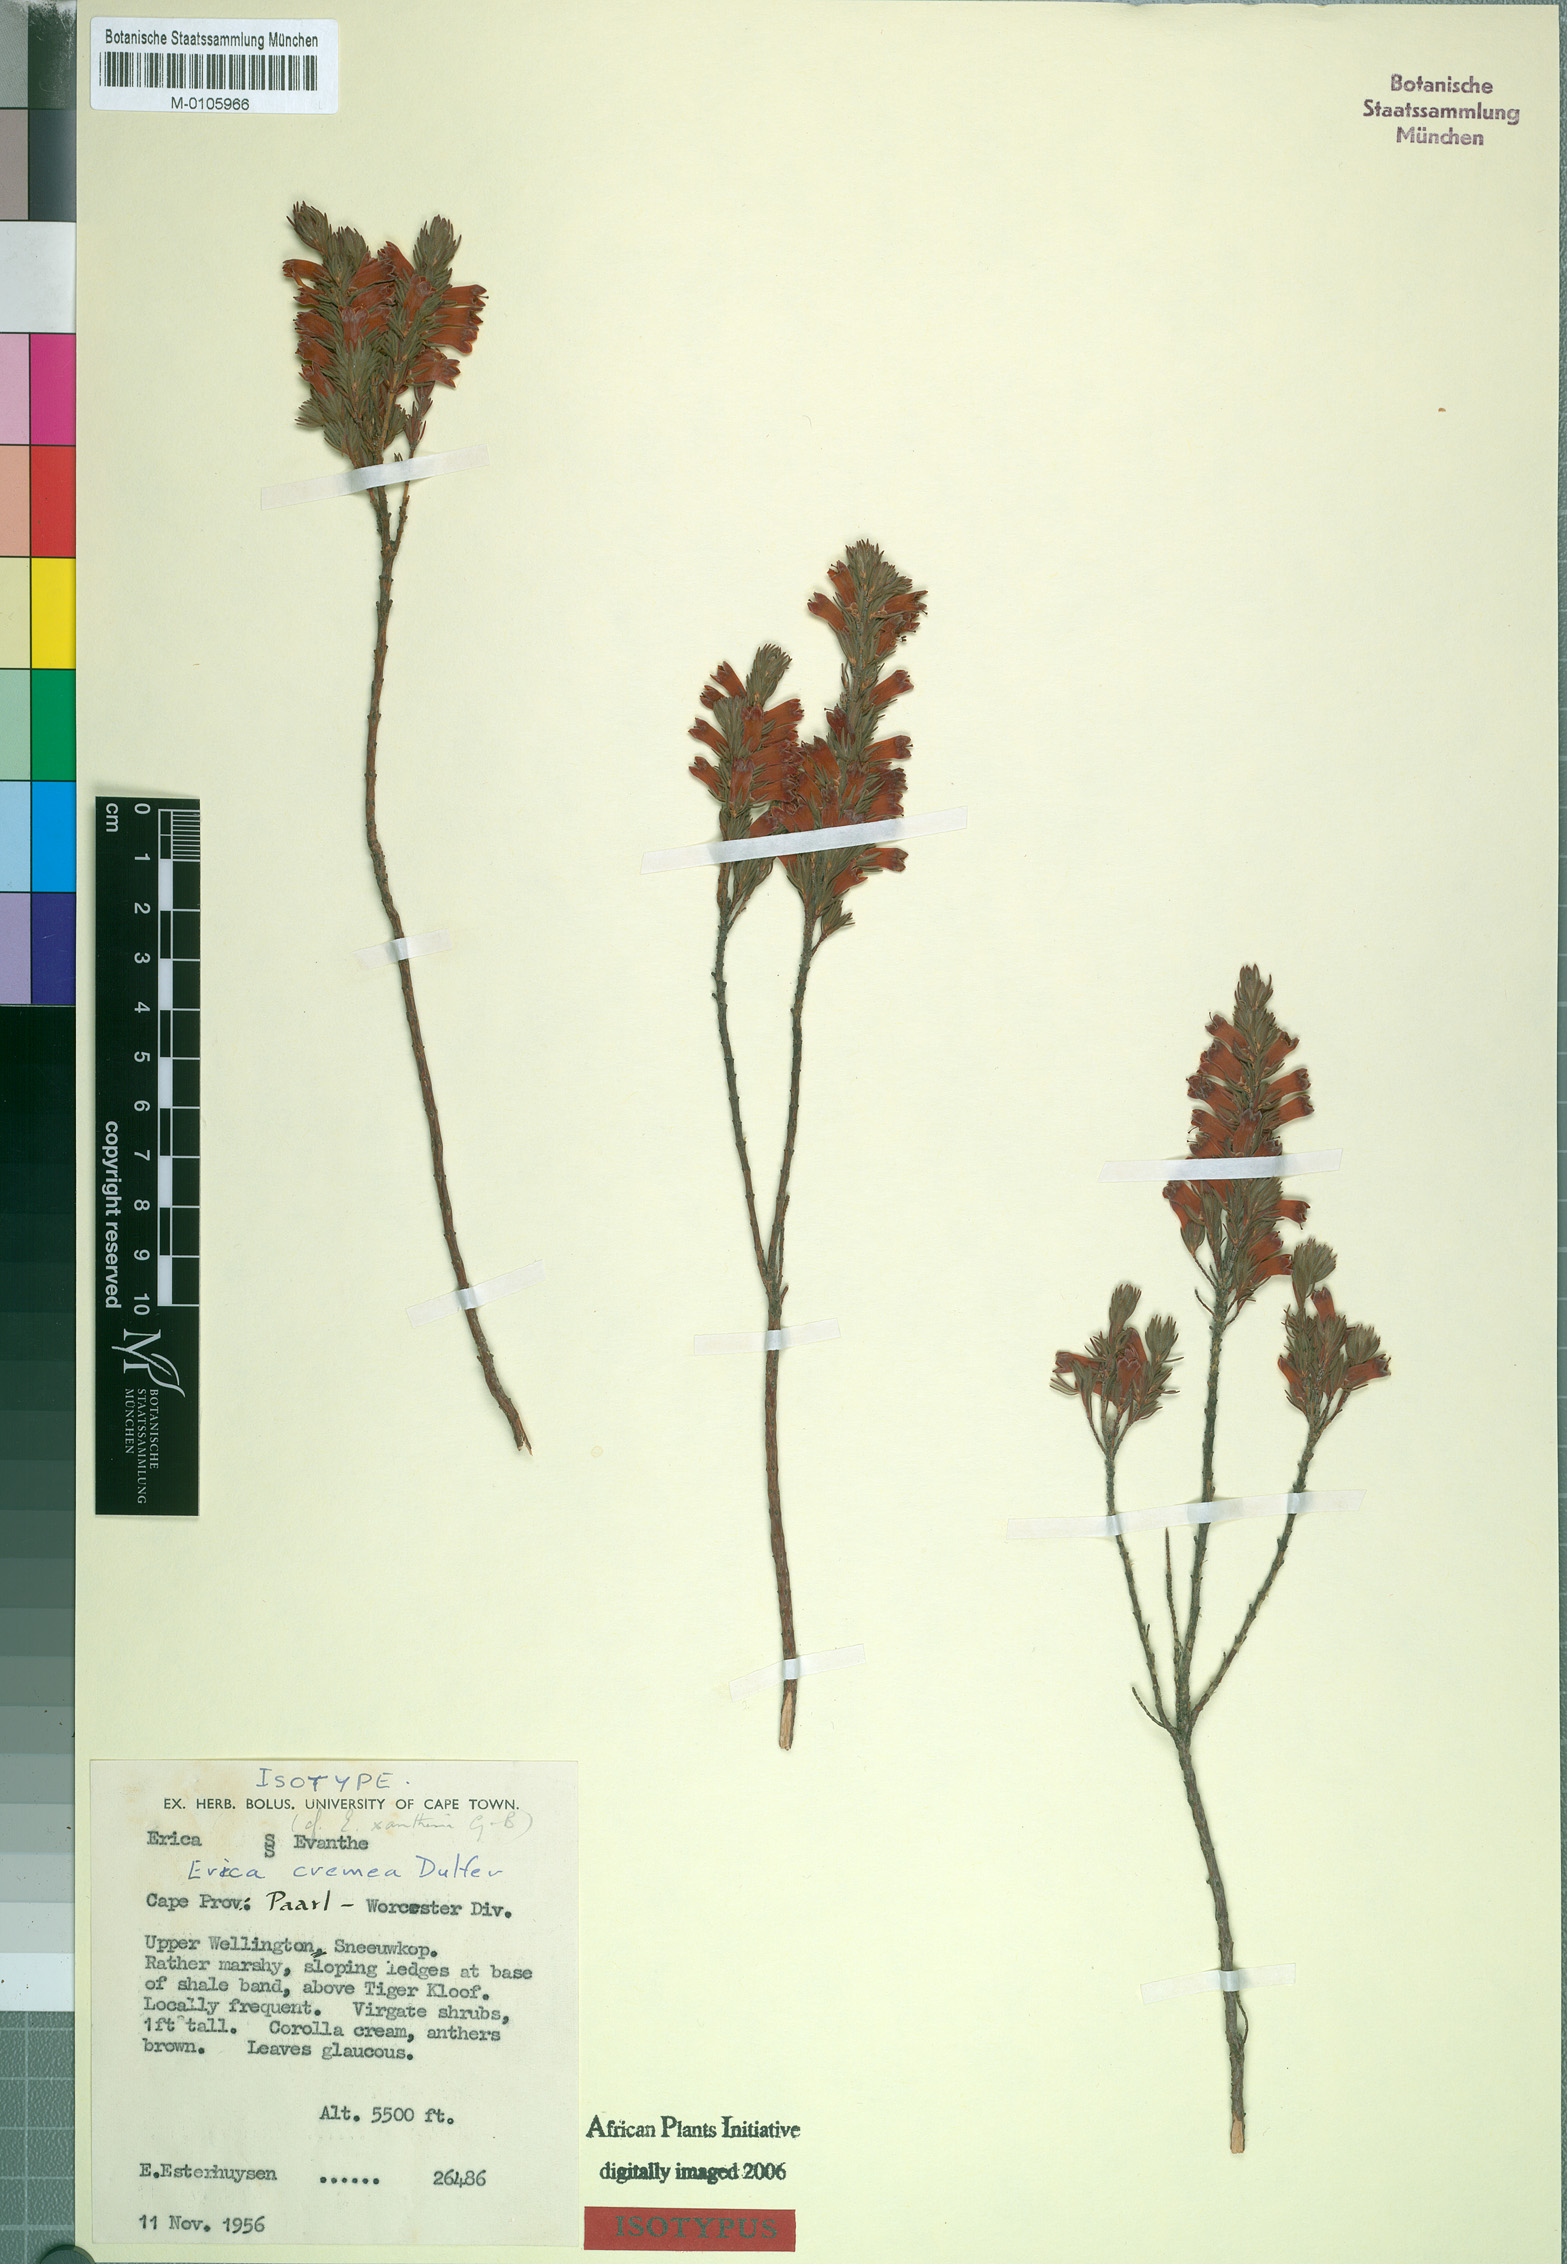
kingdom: Plantae
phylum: Tracheophyta
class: Magnoliopsida
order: Ericales
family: Ericaceae
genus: Erica
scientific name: Erica cremea
